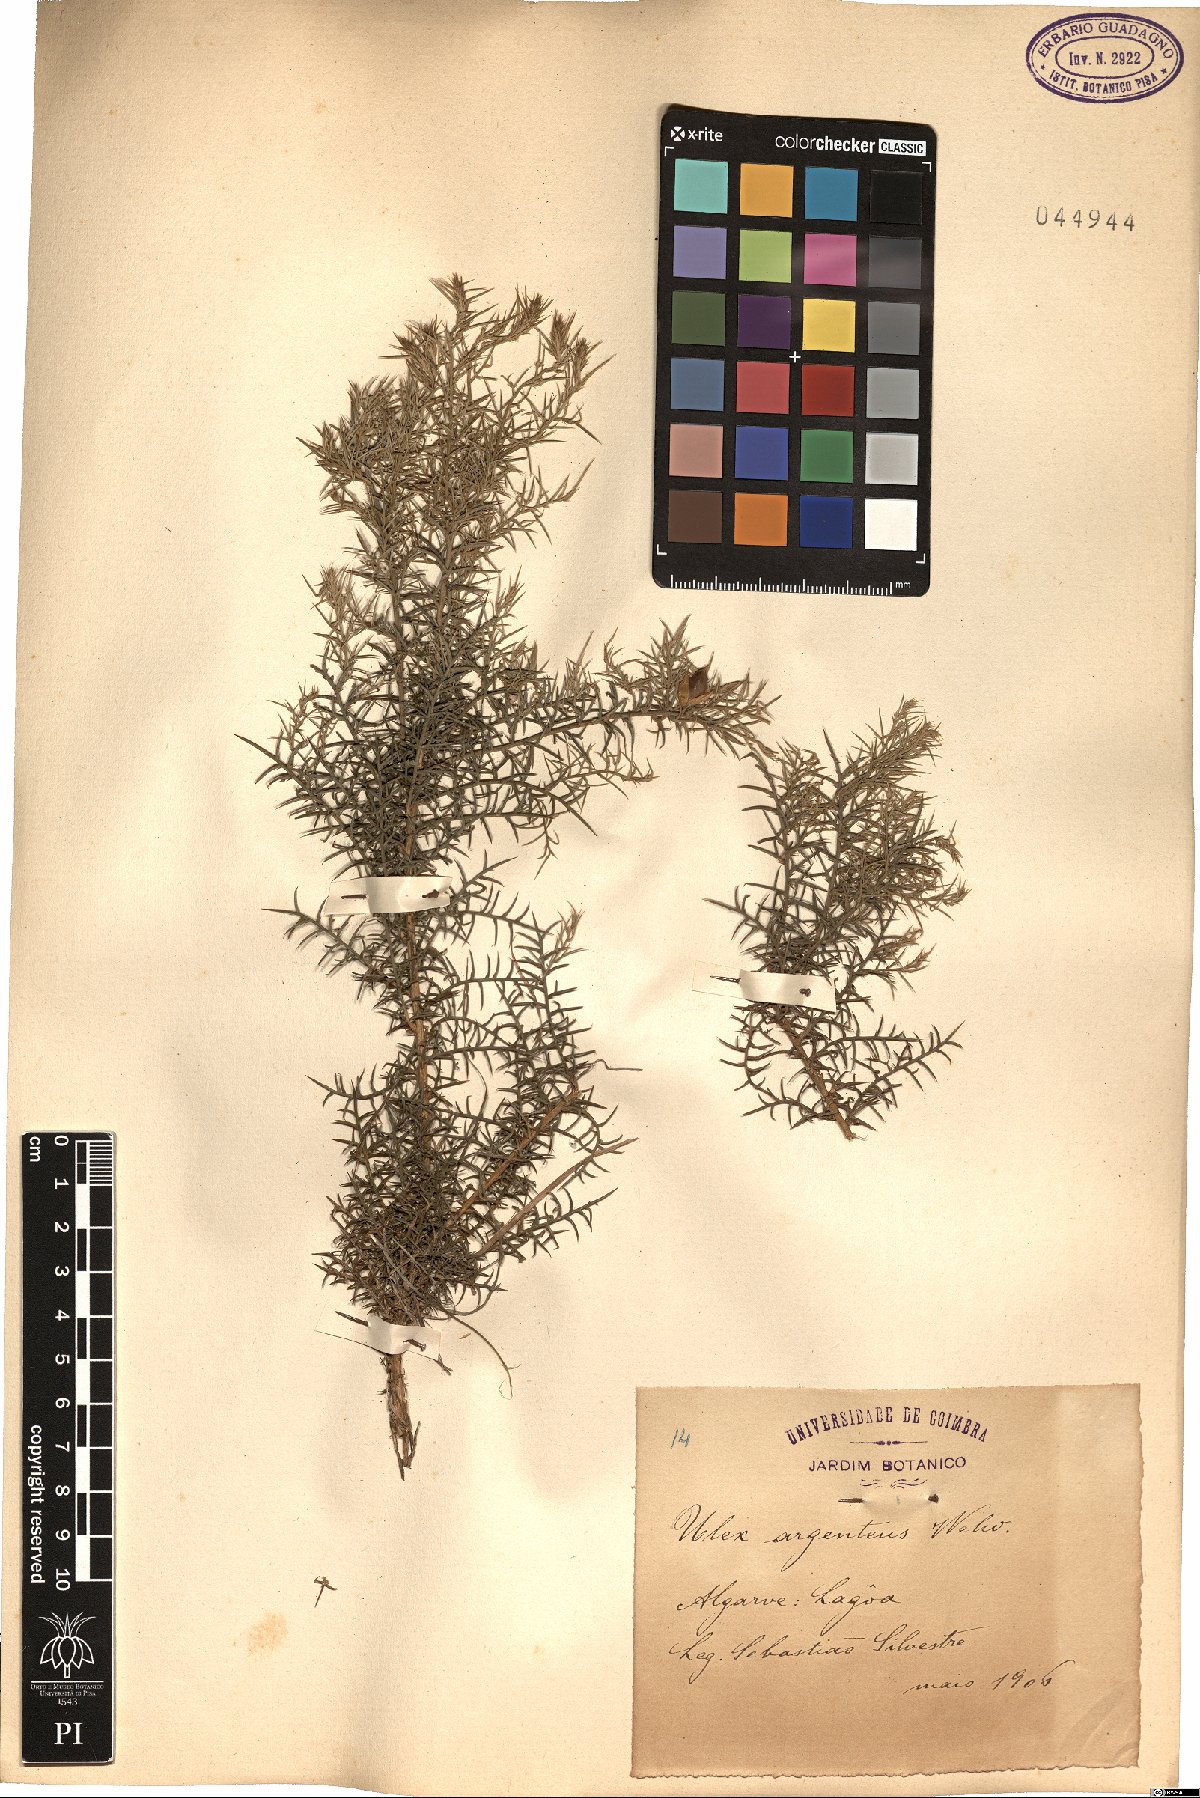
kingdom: Plantae
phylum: Tracheophyta
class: Magnoliopsida
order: Fabales
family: Fabaceae
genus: Ulex
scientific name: Ulex argenteus
